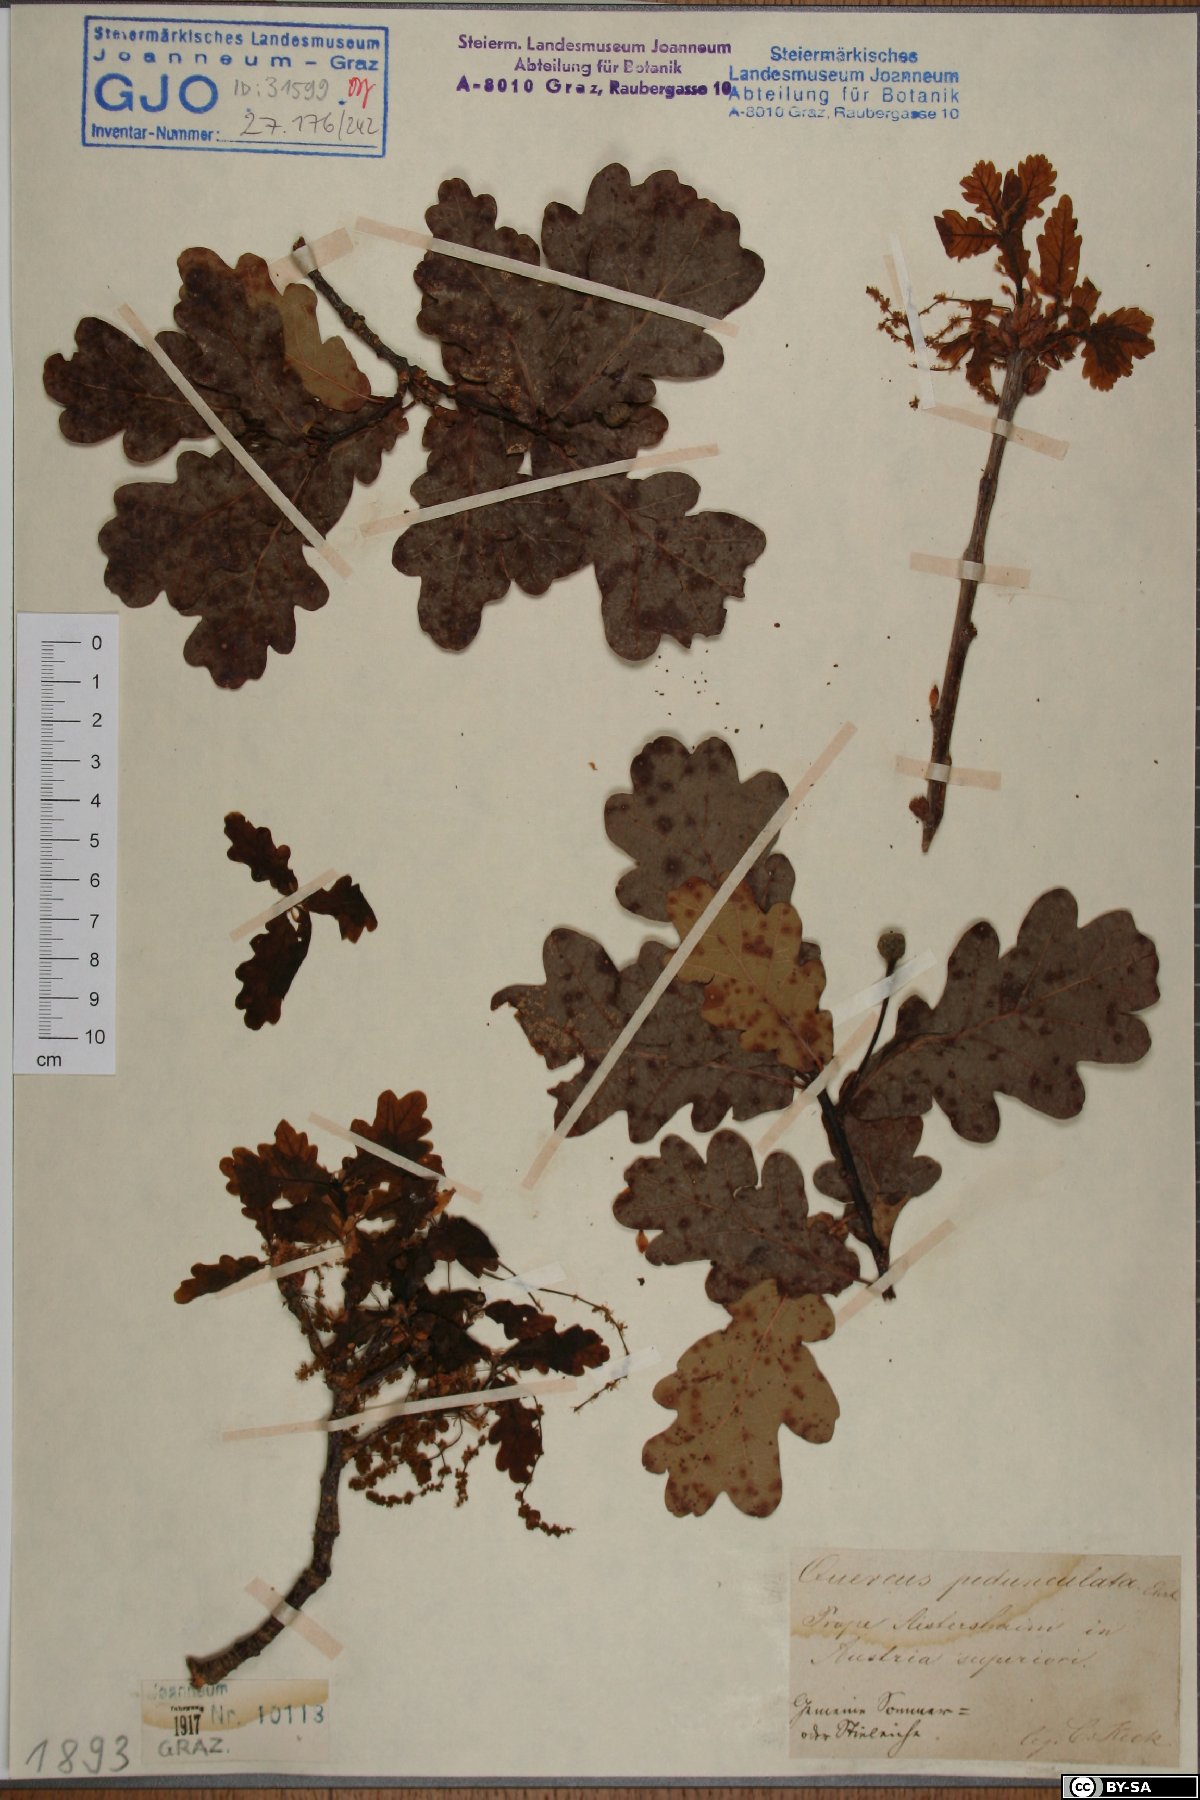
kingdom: Plantae
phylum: Tracheophyta
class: Magnoliopsida
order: Fagales
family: Fagaceae
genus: Quercus
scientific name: Quercus robur
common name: Pedunculate oak
